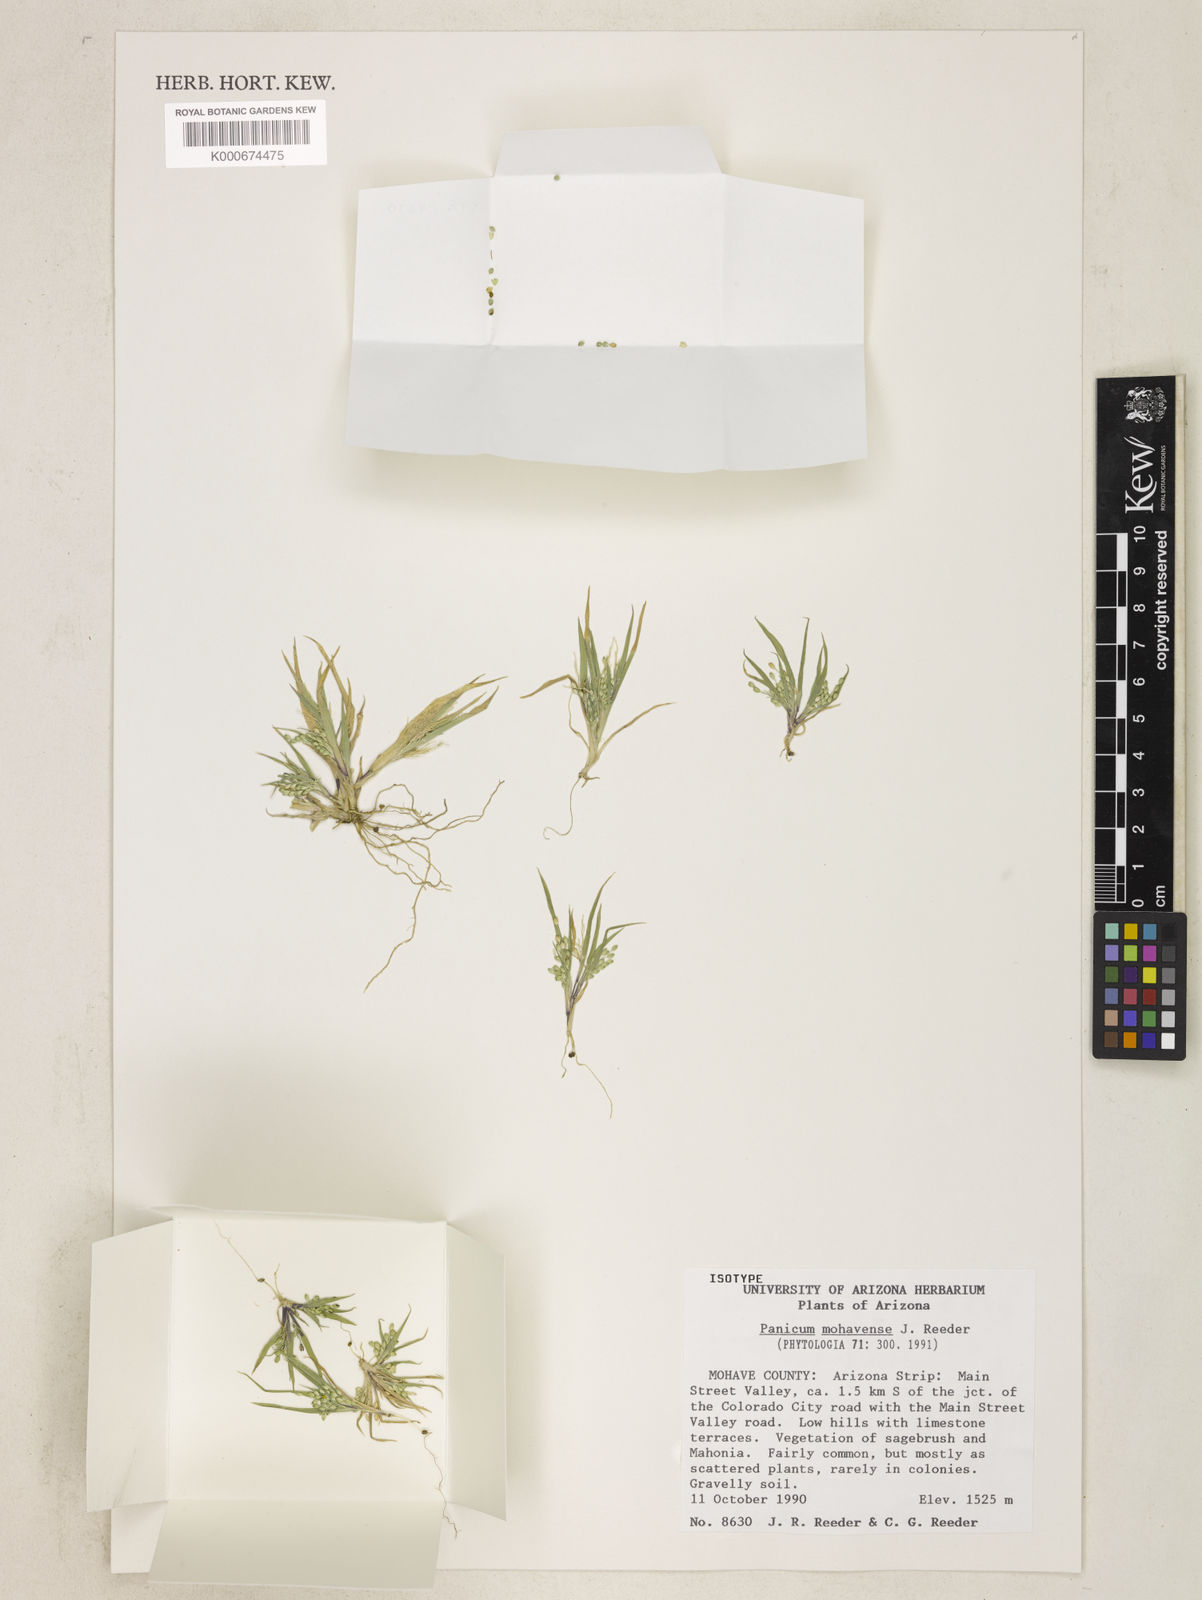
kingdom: Plantae
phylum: Tracheophyta
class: Liliopsida
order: Poales
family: Poaceae
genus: Panicum
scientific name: Panicum mohavense
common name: Mohave panicgrass
